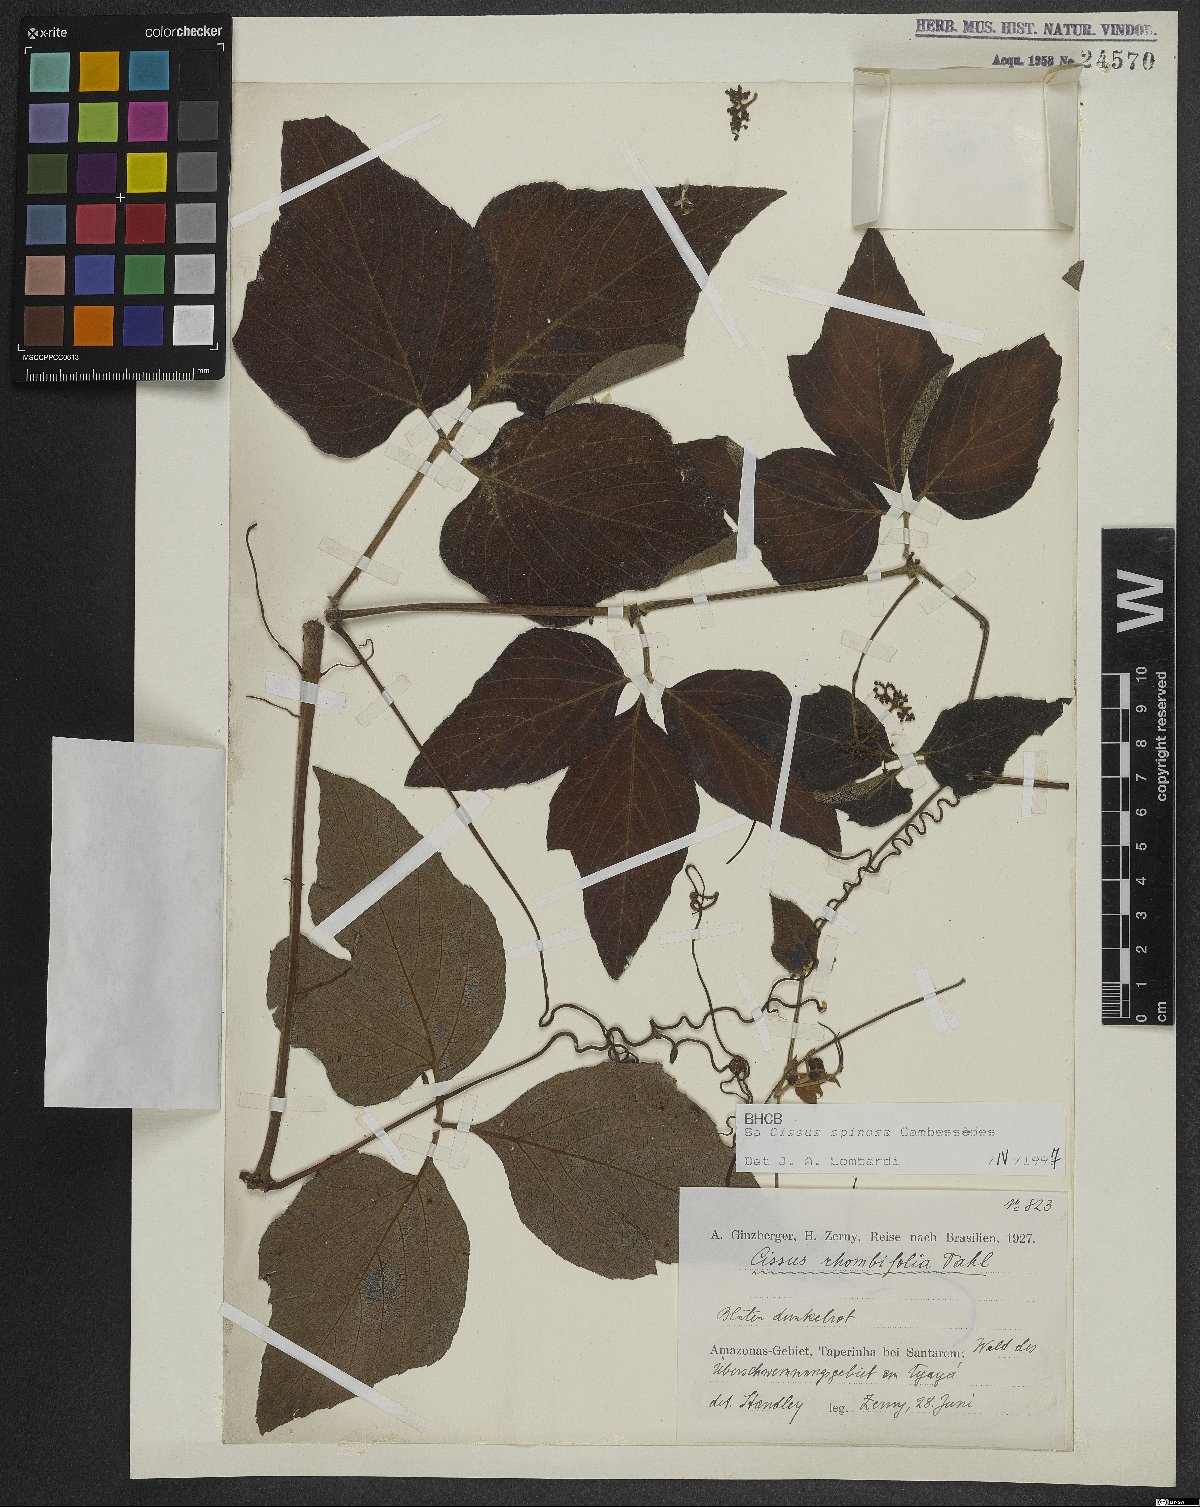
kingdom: Plantae
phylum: Tracheophyta
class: Magnoliopsida
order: Vitales
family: Vitaceae
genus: Cissus
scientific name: Cissus spinosa
